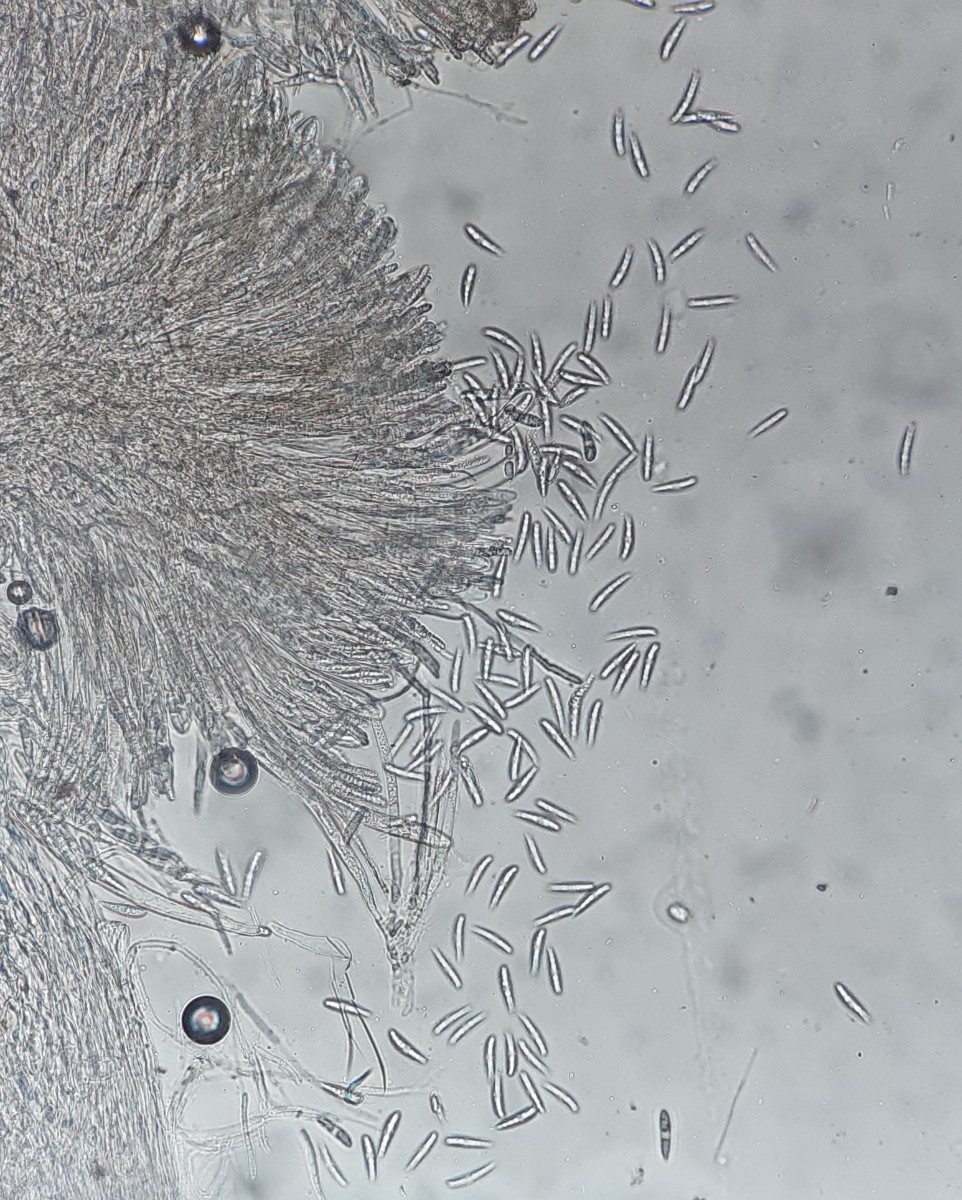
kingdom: Fungi
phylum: Ascomycota
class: Leotiomycetes
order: Helotiales
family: Helotiaceae
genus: Hymenoscyphus
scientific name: Hymenoscyphus scutula
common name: almindelig stilkskive
